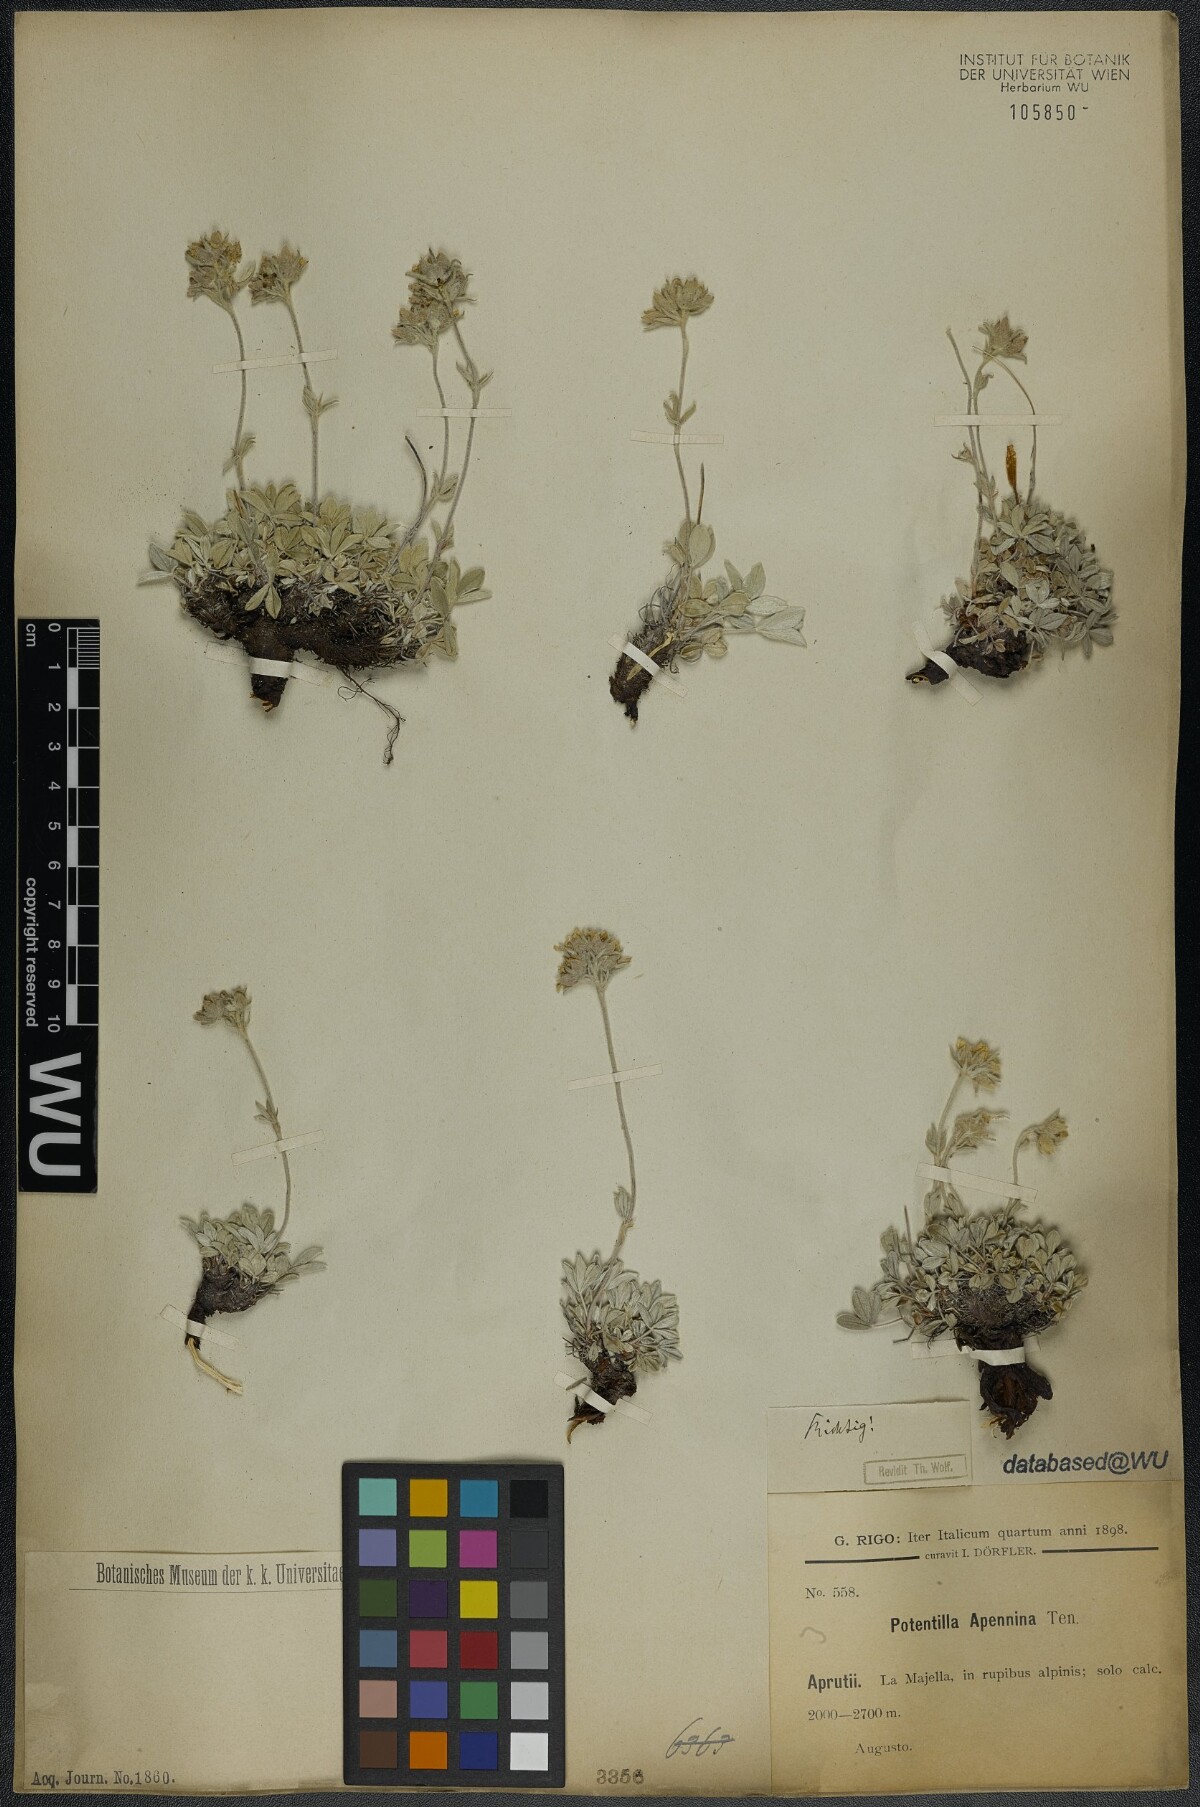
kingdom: Plantae
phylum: Tracheophyta
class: Magnoliopsida
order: Rosales
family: Rosaceae
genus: Potentilla
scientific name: Potentilla apennina
